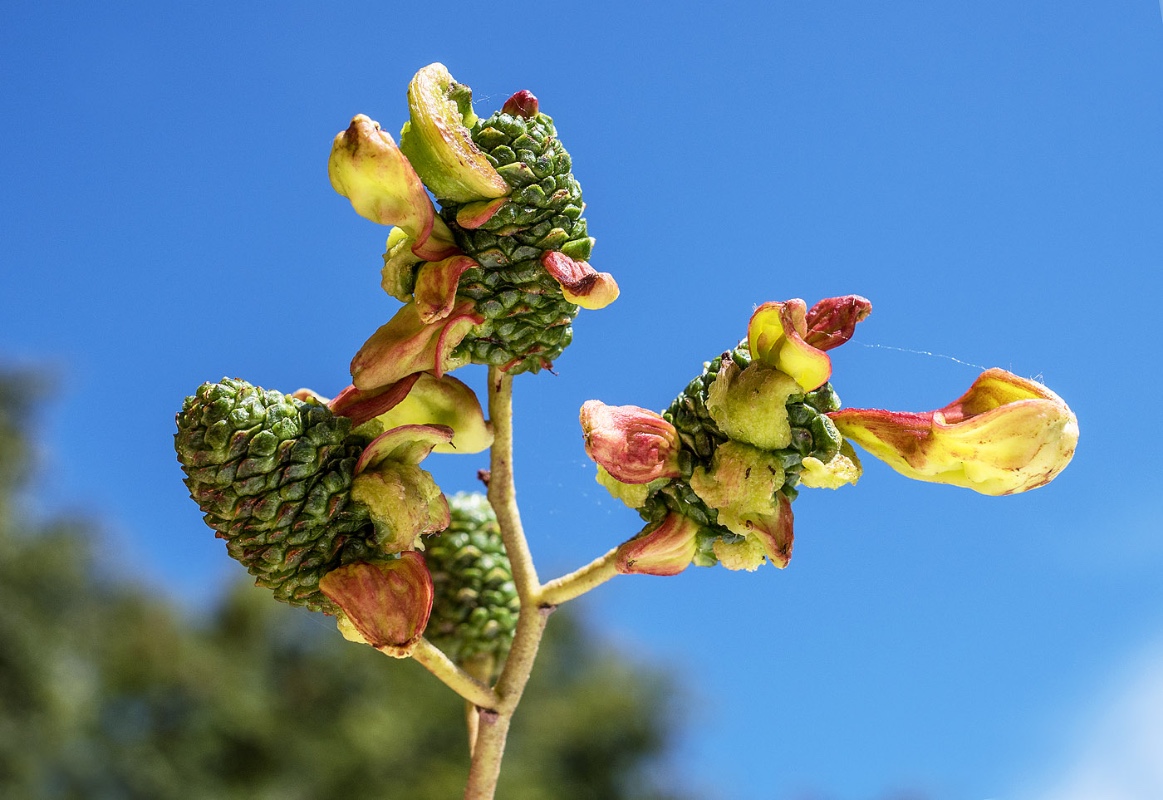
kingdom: Fungi
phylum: Ascomycota
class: Taphrinomycetes
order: Taphrinales
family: Taphrinaceae
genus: Taphrina
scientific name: Taphrina alni
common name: Alder tongue
